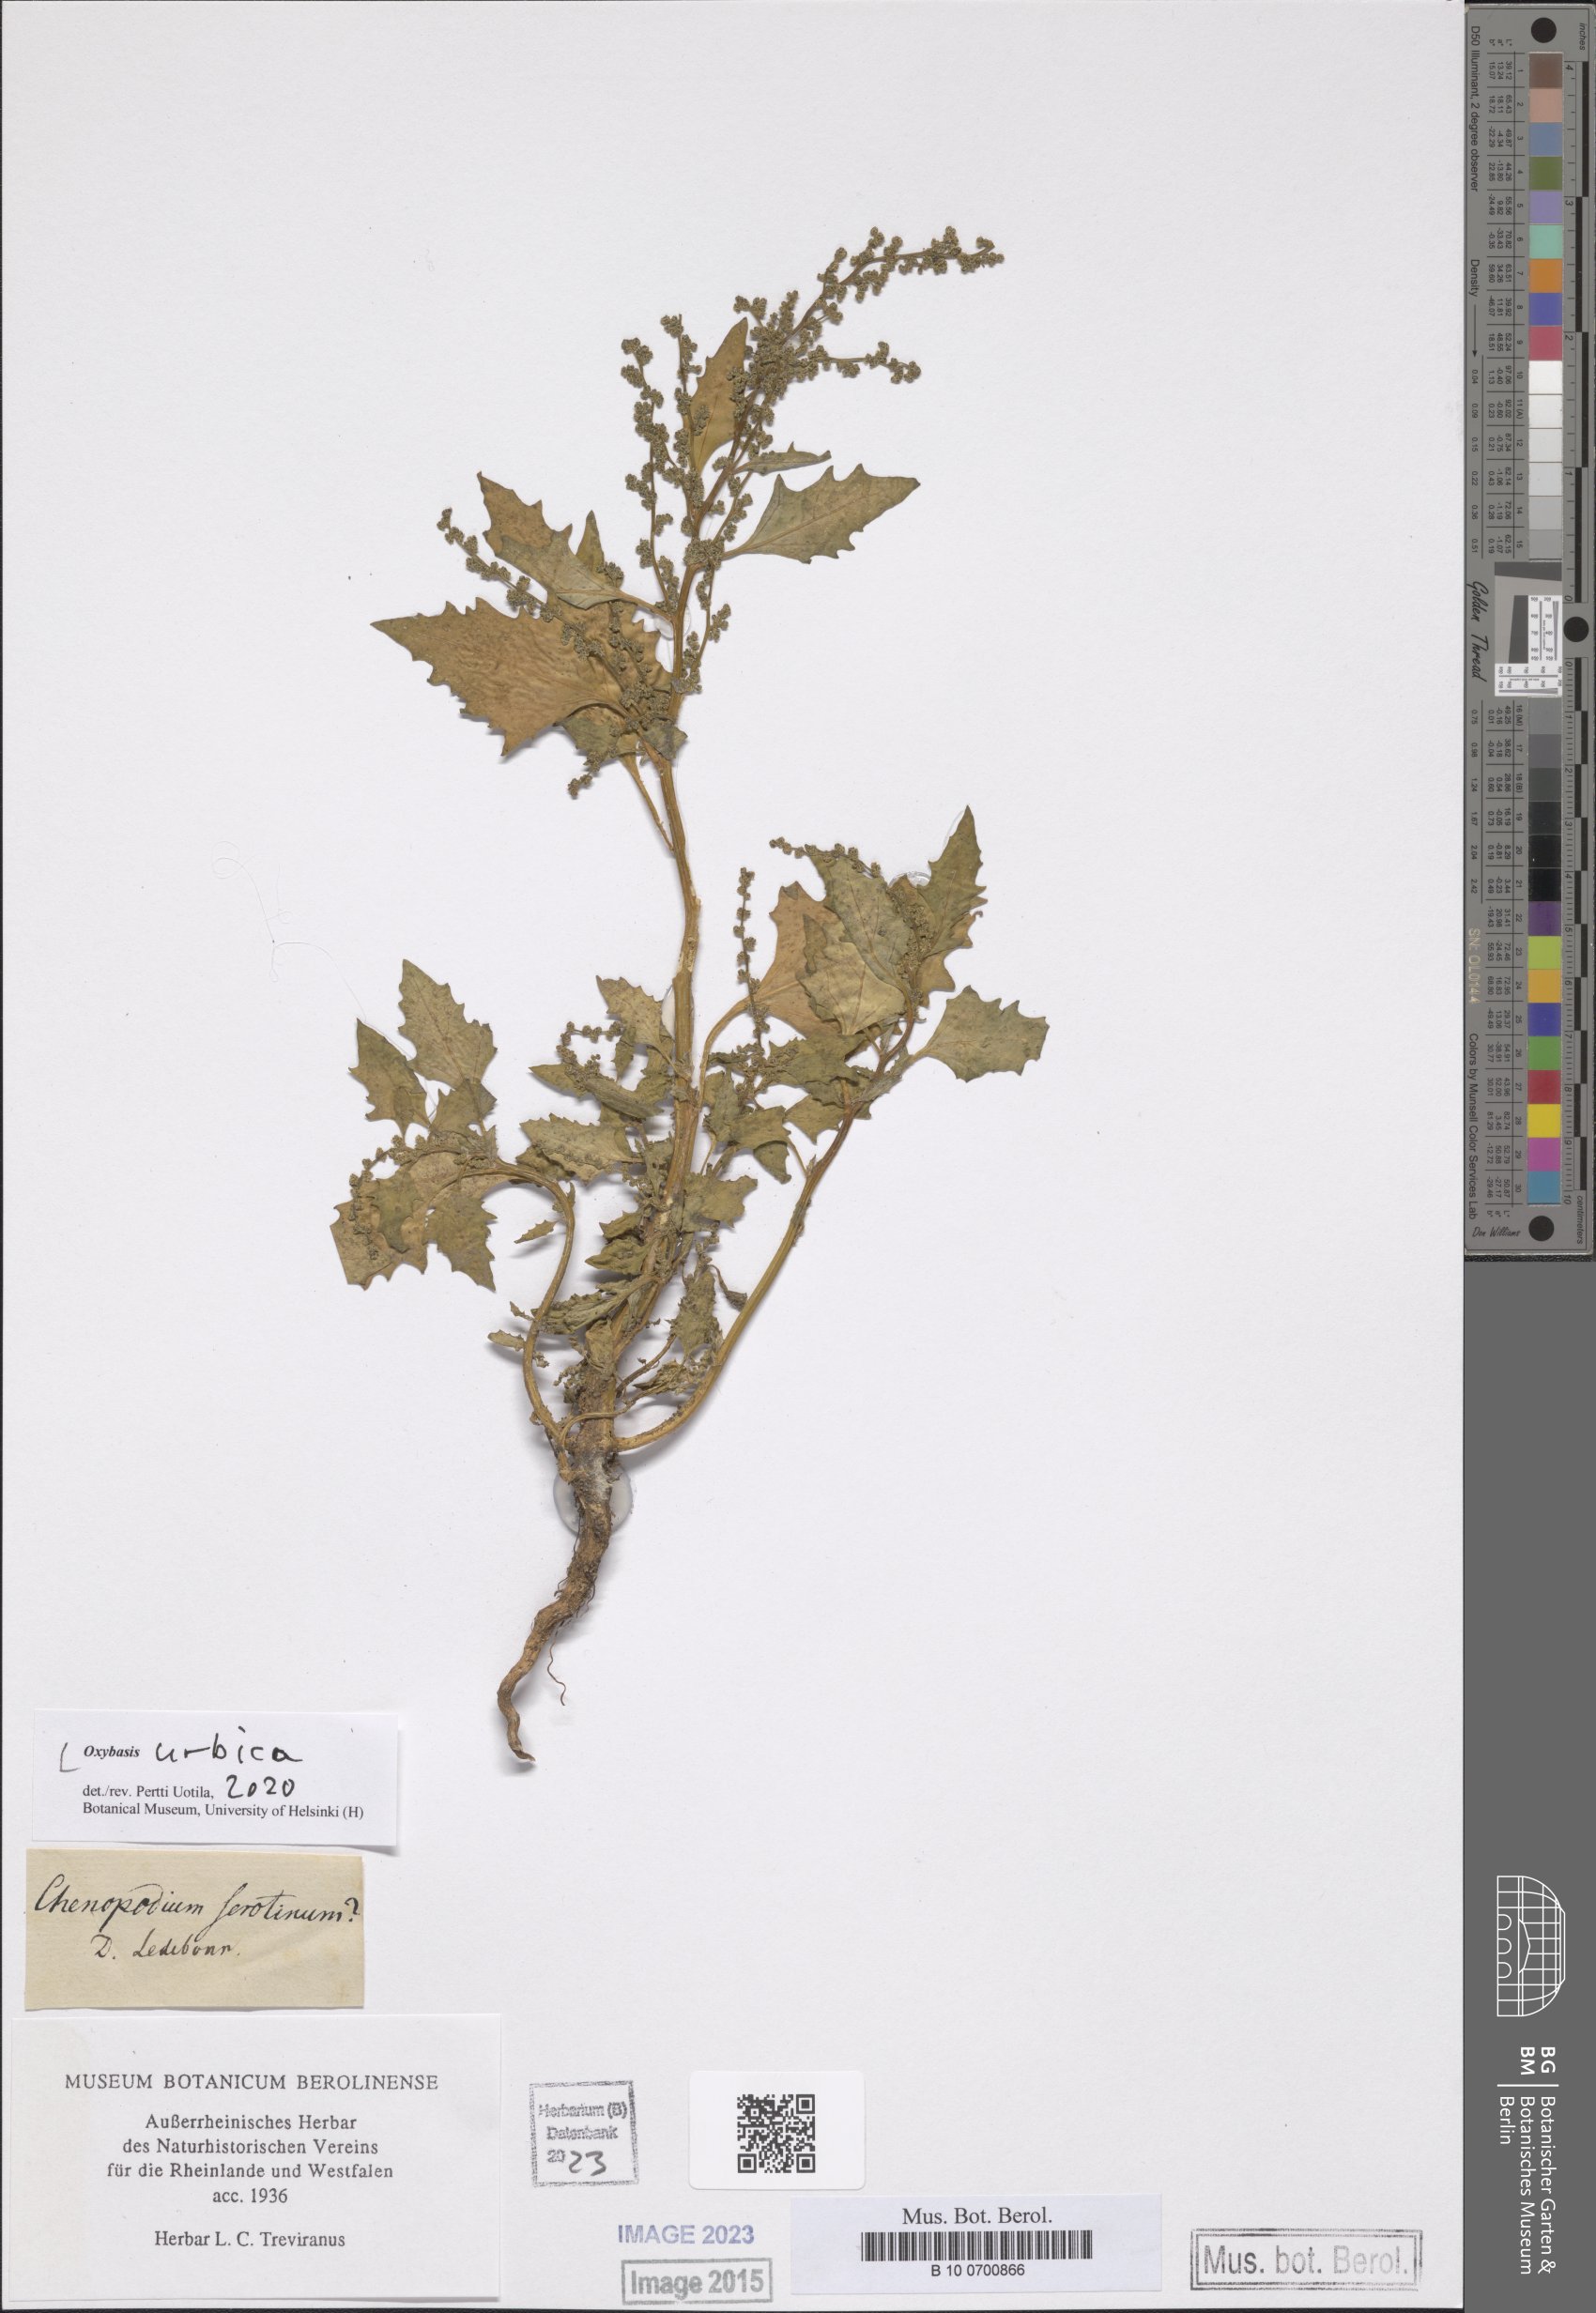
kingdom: Plantae
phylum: Tracheophyta
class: Magnoliopsida
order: Caryophyllales
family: Amaranthaceae
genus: Oxybasis
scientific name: Oxybasis urbica
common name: City goosefoot
